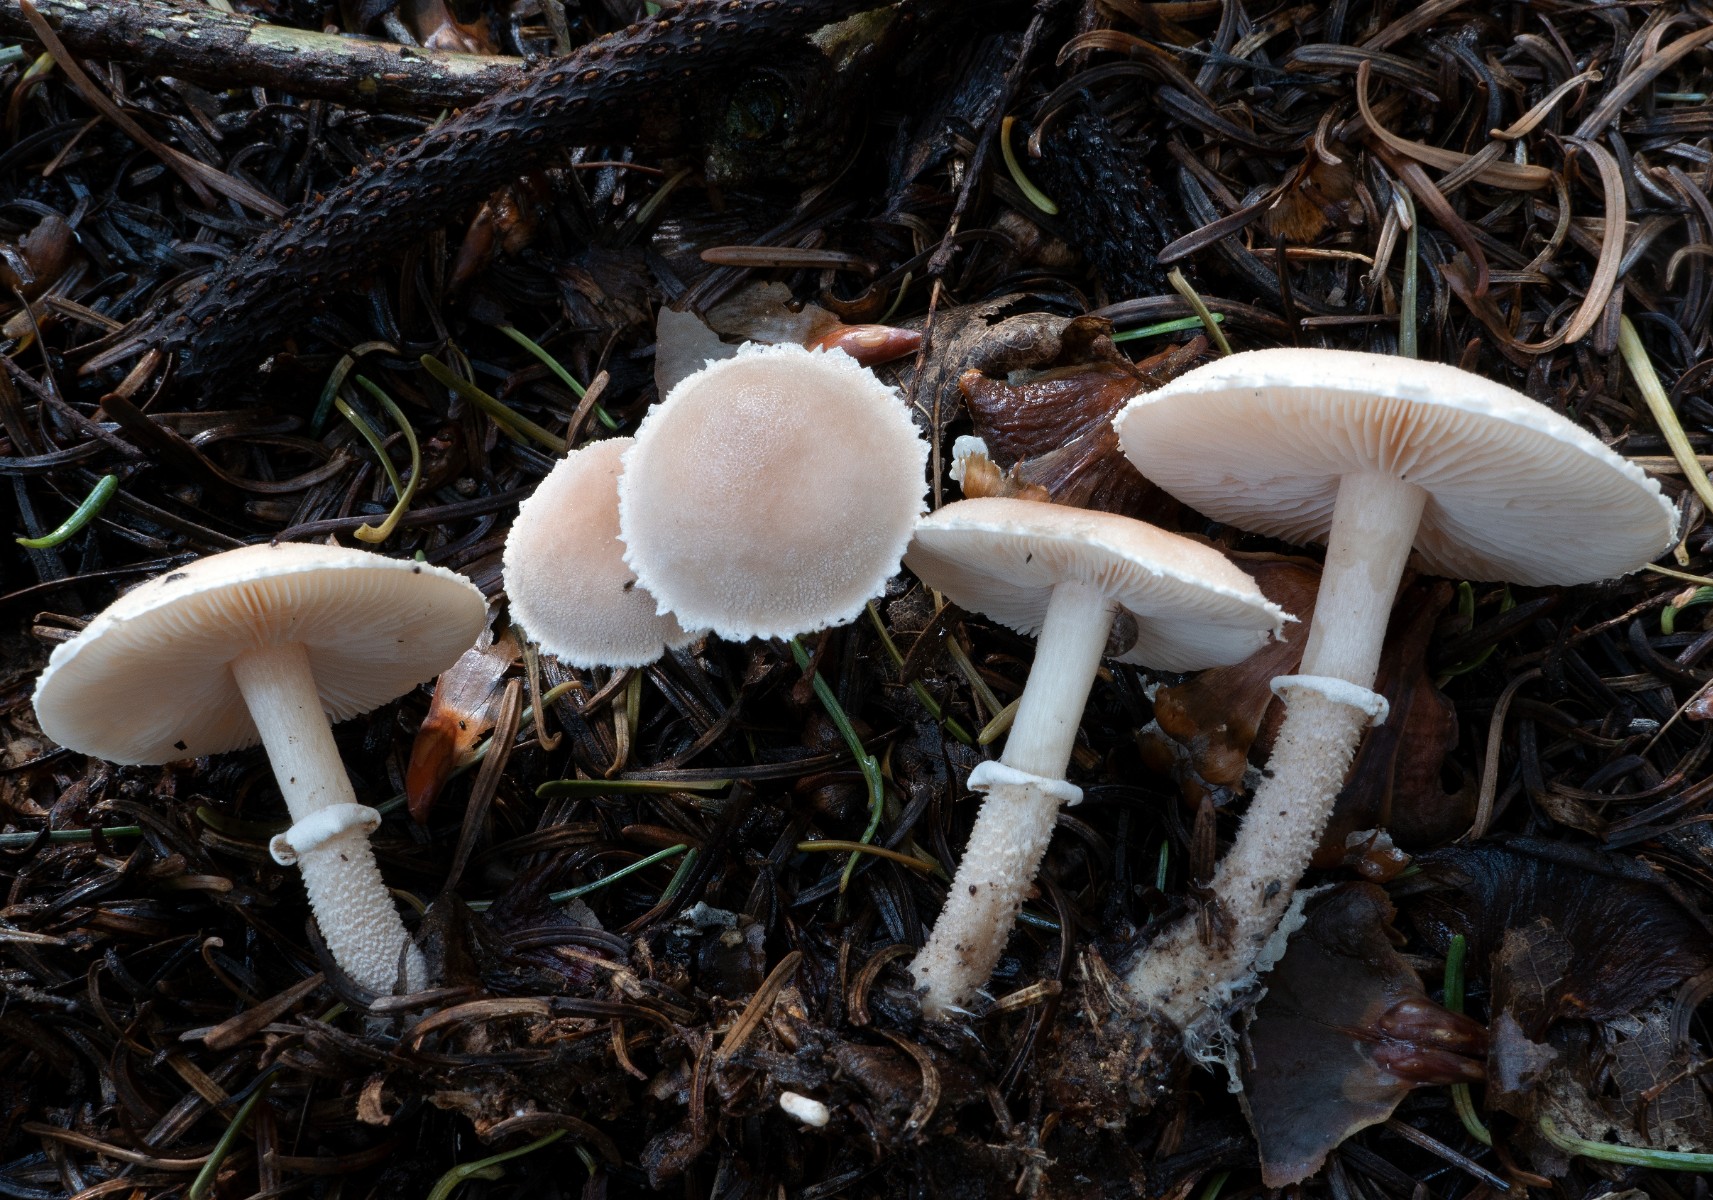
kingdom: Fungi
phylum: Basidiomycota
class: Agaricomycetes
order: Agaricales
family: Tricholomataceae
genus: Cystoderma
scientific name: Cystoderma carcharias
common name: rødgrå grynhat
